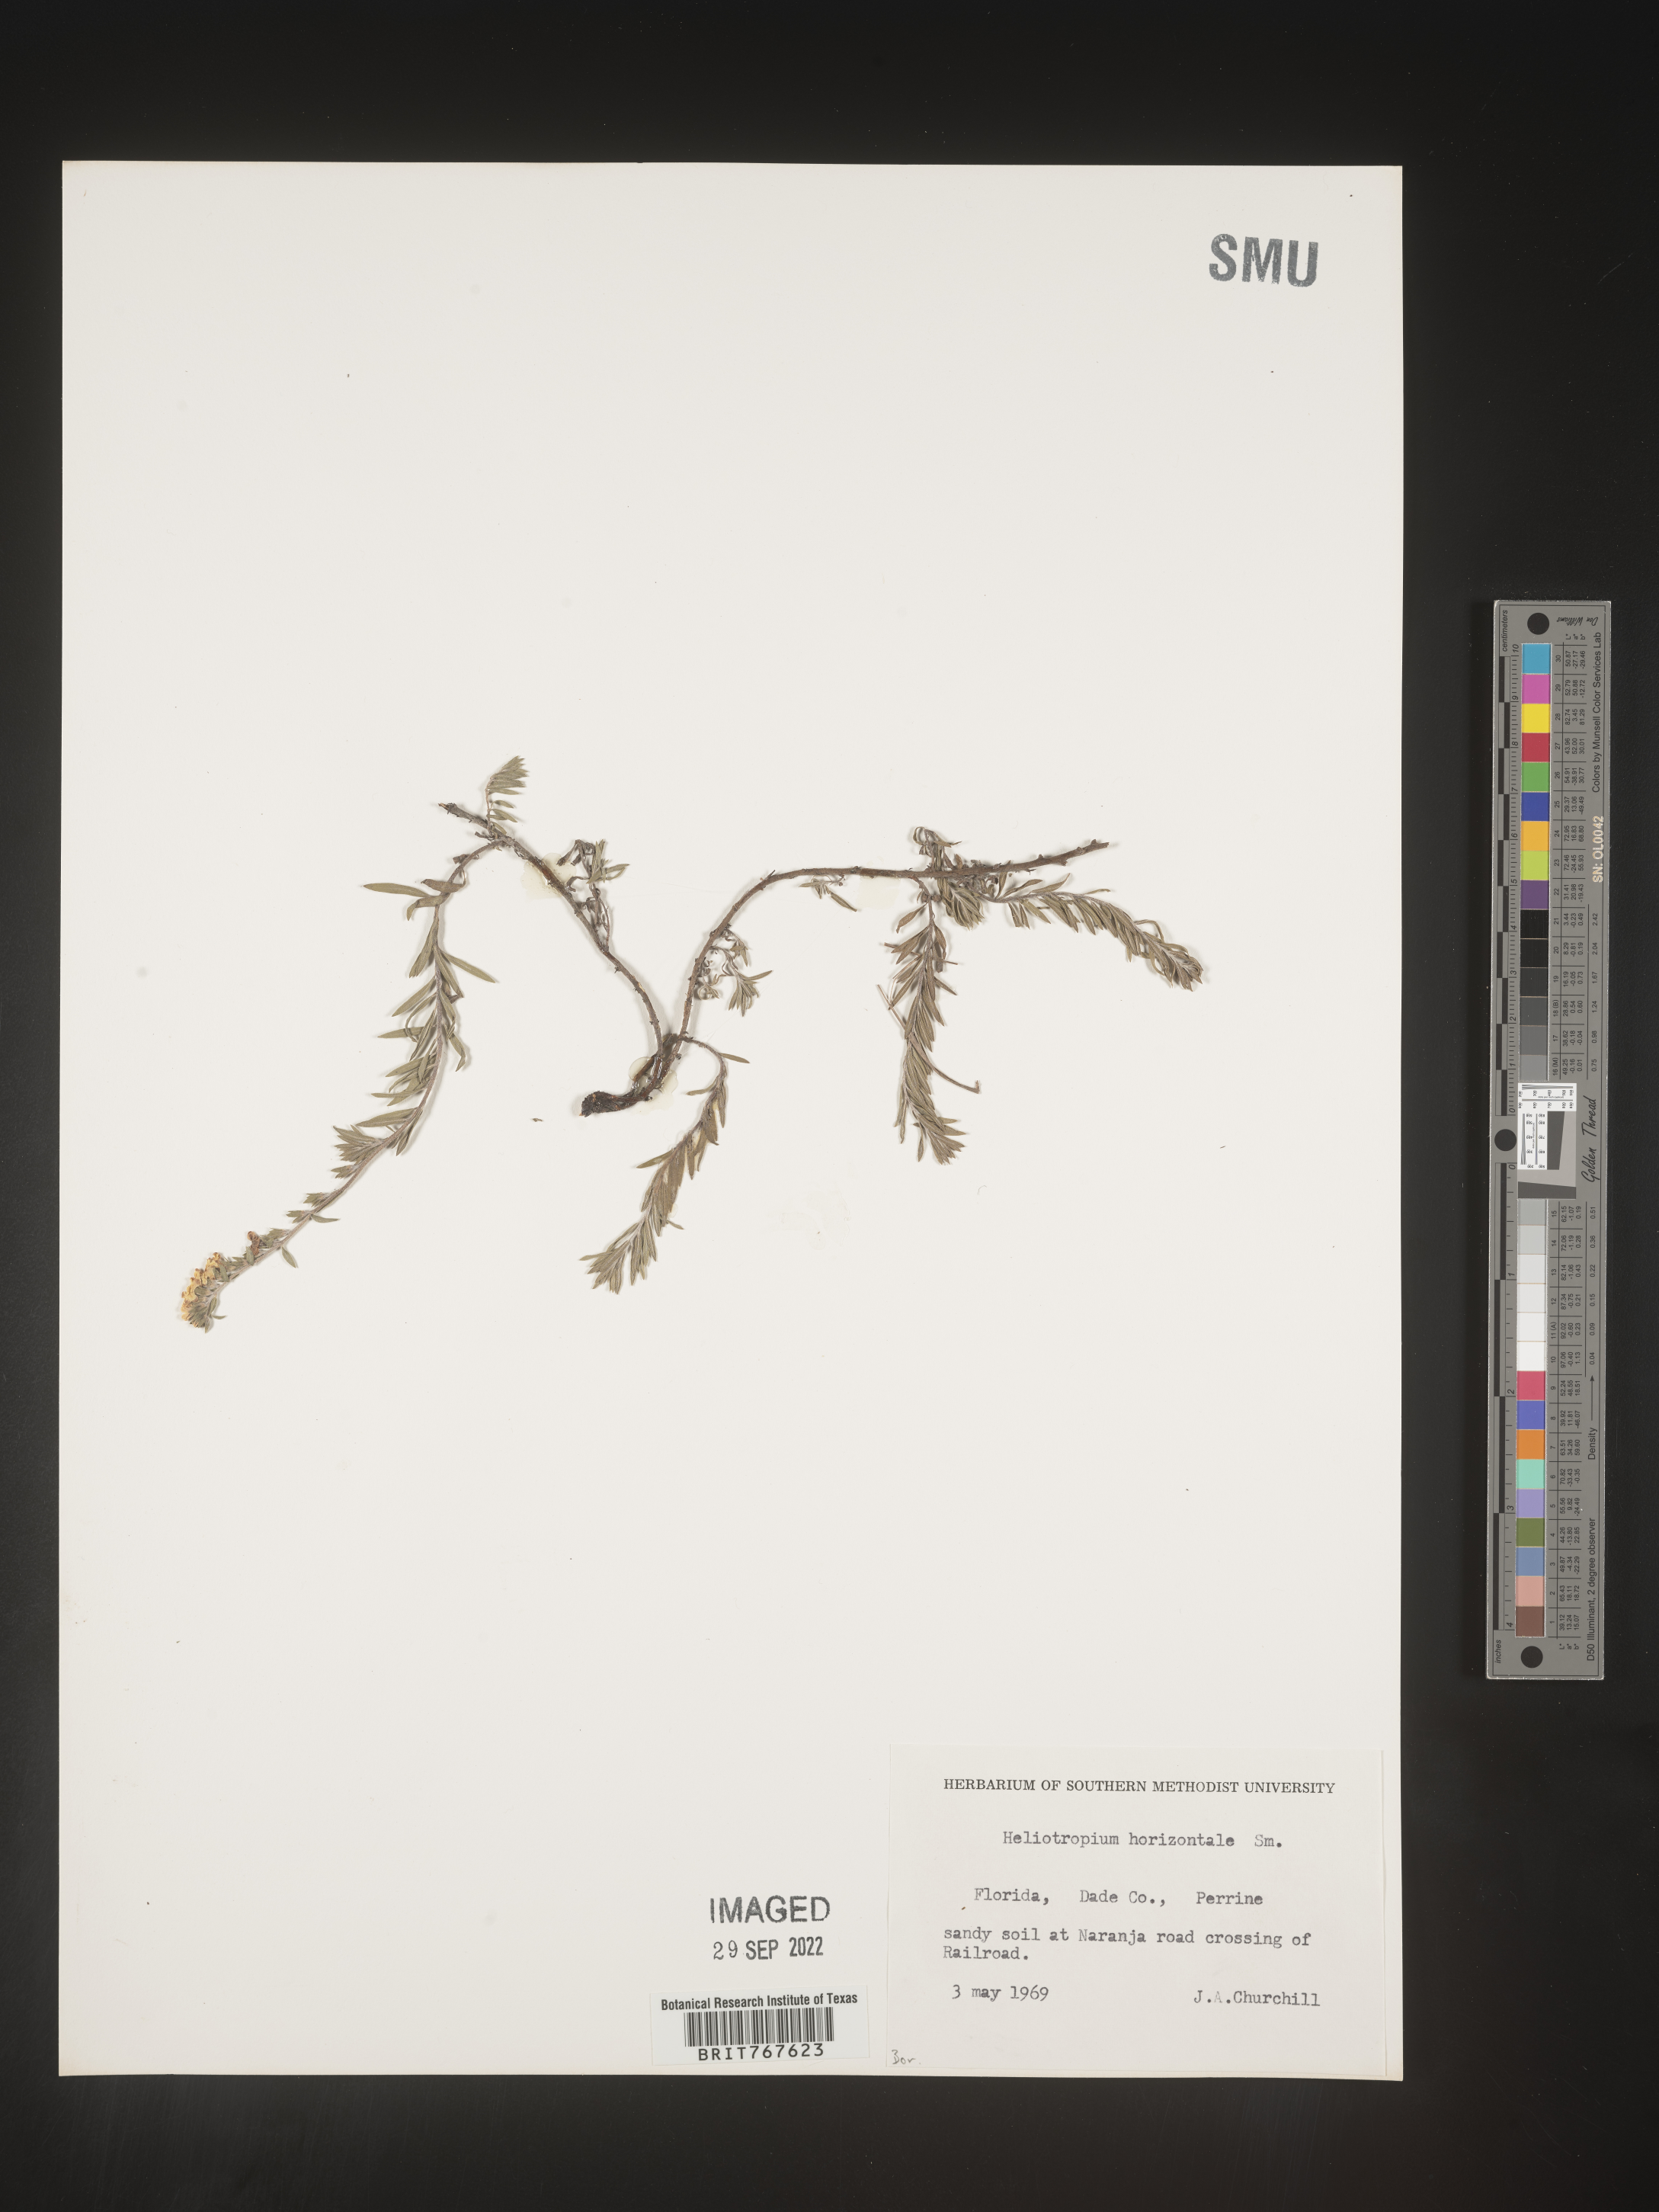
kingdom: Plantae
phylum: Tracheophyta
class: Magnoliopsida
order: Boraginales
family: Heliotropiaceae
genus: Heliotropium
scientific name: Heliotropium
